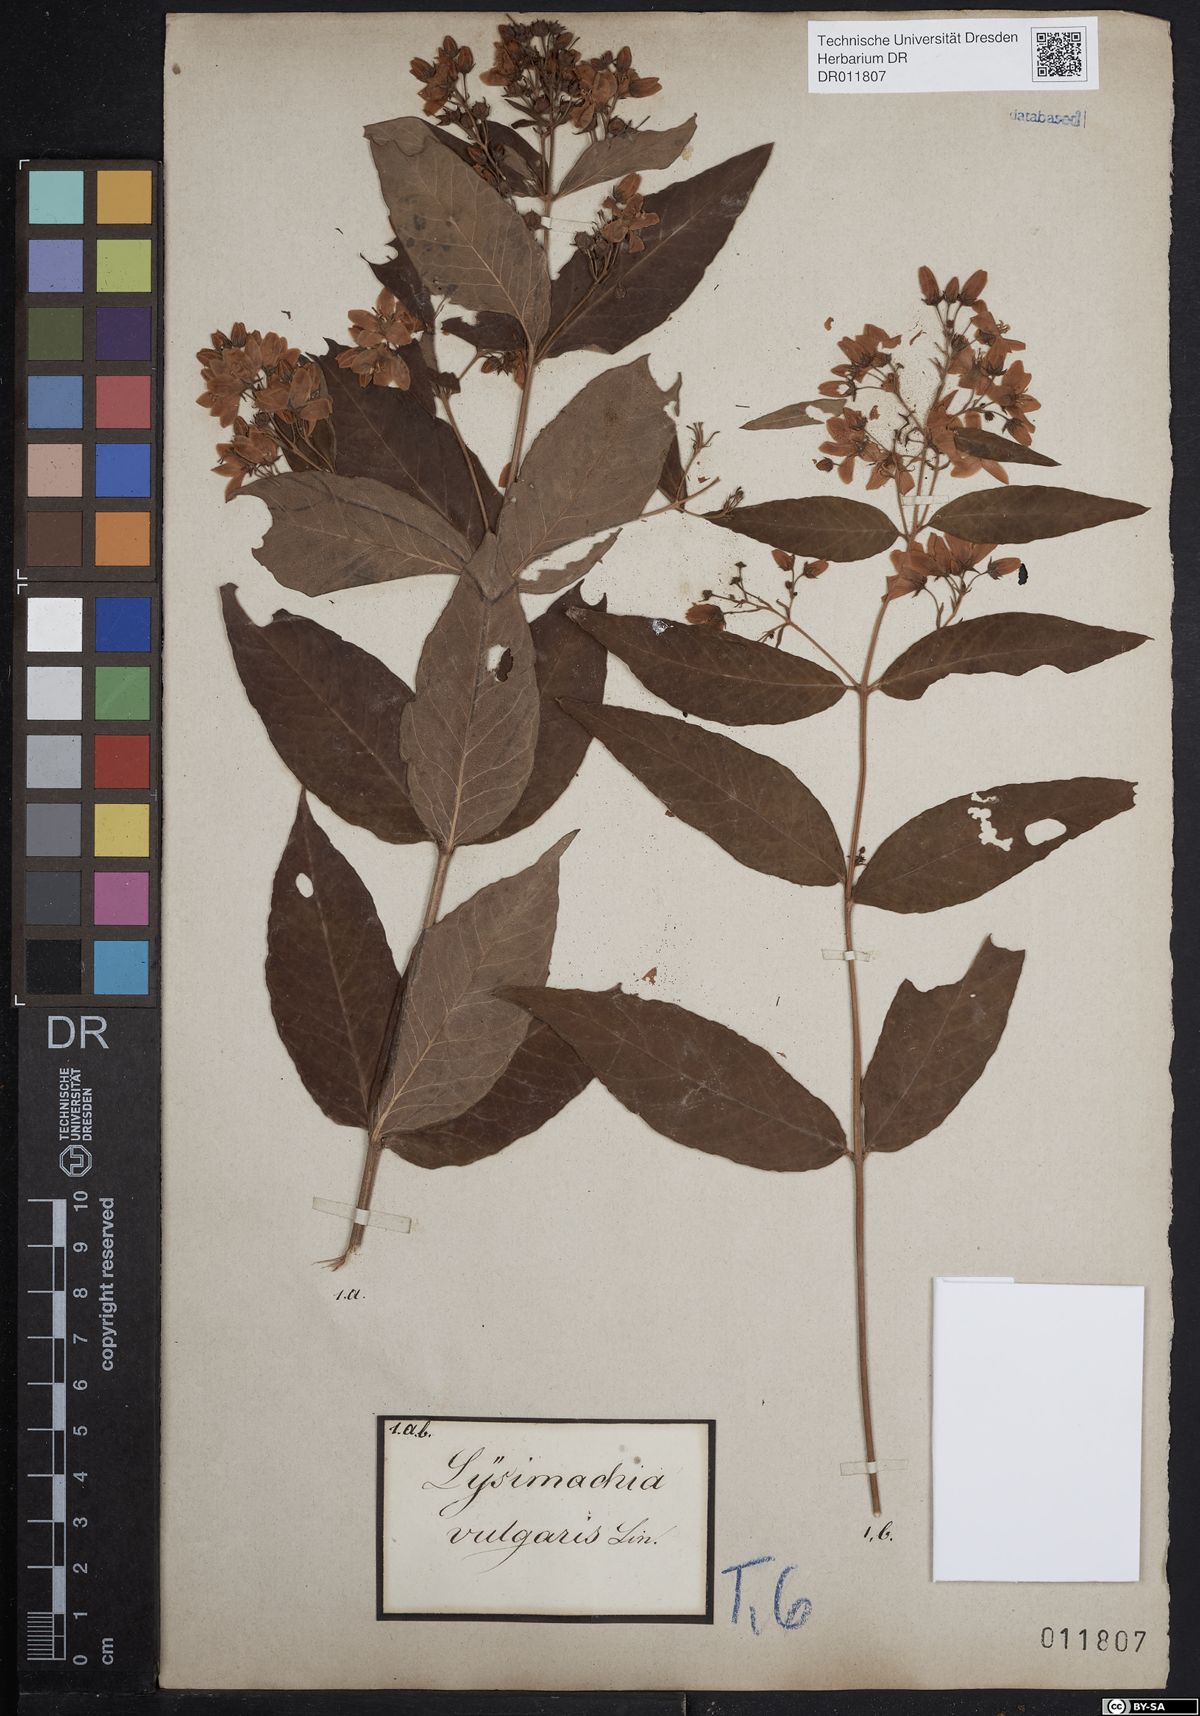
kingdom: Plantae
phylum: Tracheophyta
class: Magnoliopsida
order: Ericales
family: Primulaceae
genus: Lysimachia
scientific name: Lysimachia vulgaris
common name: Yellow loosestrife
